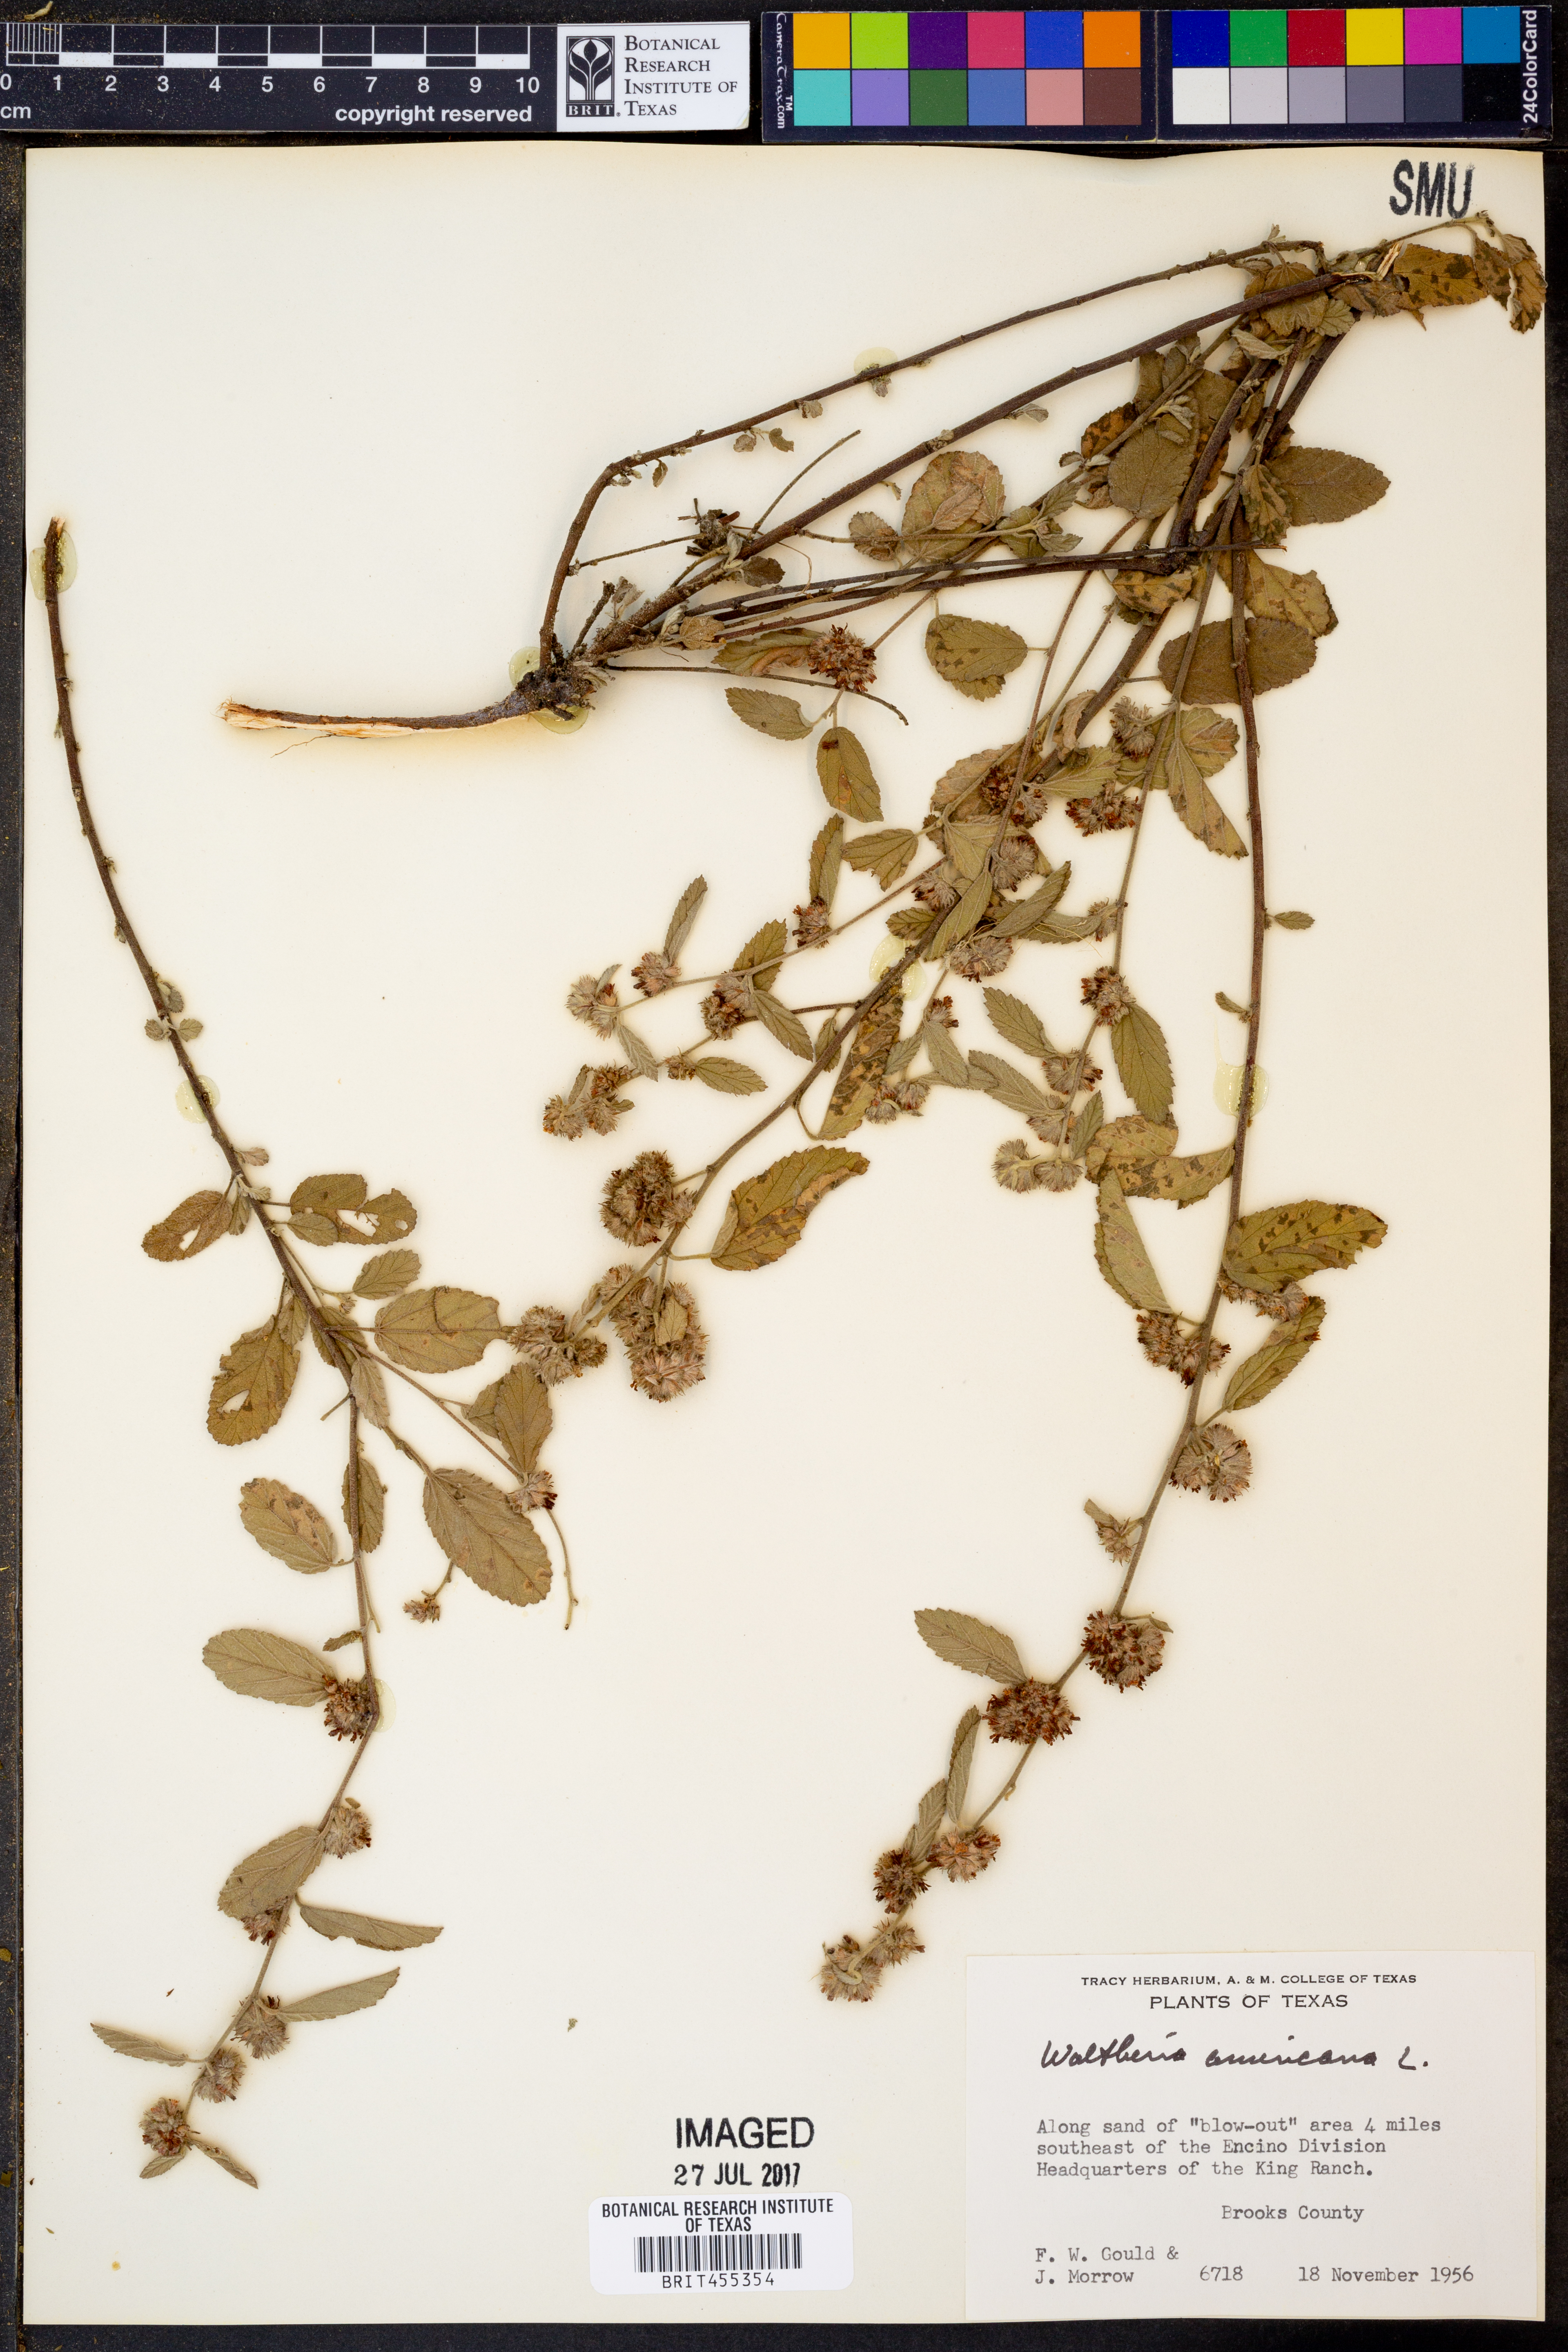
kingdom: Plantae
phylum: Tracheophyta
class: Magnoliopsida
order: Malvales
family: Malvaceae
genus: Waltheria
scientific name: Waltheria indica
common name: Leather-coat
